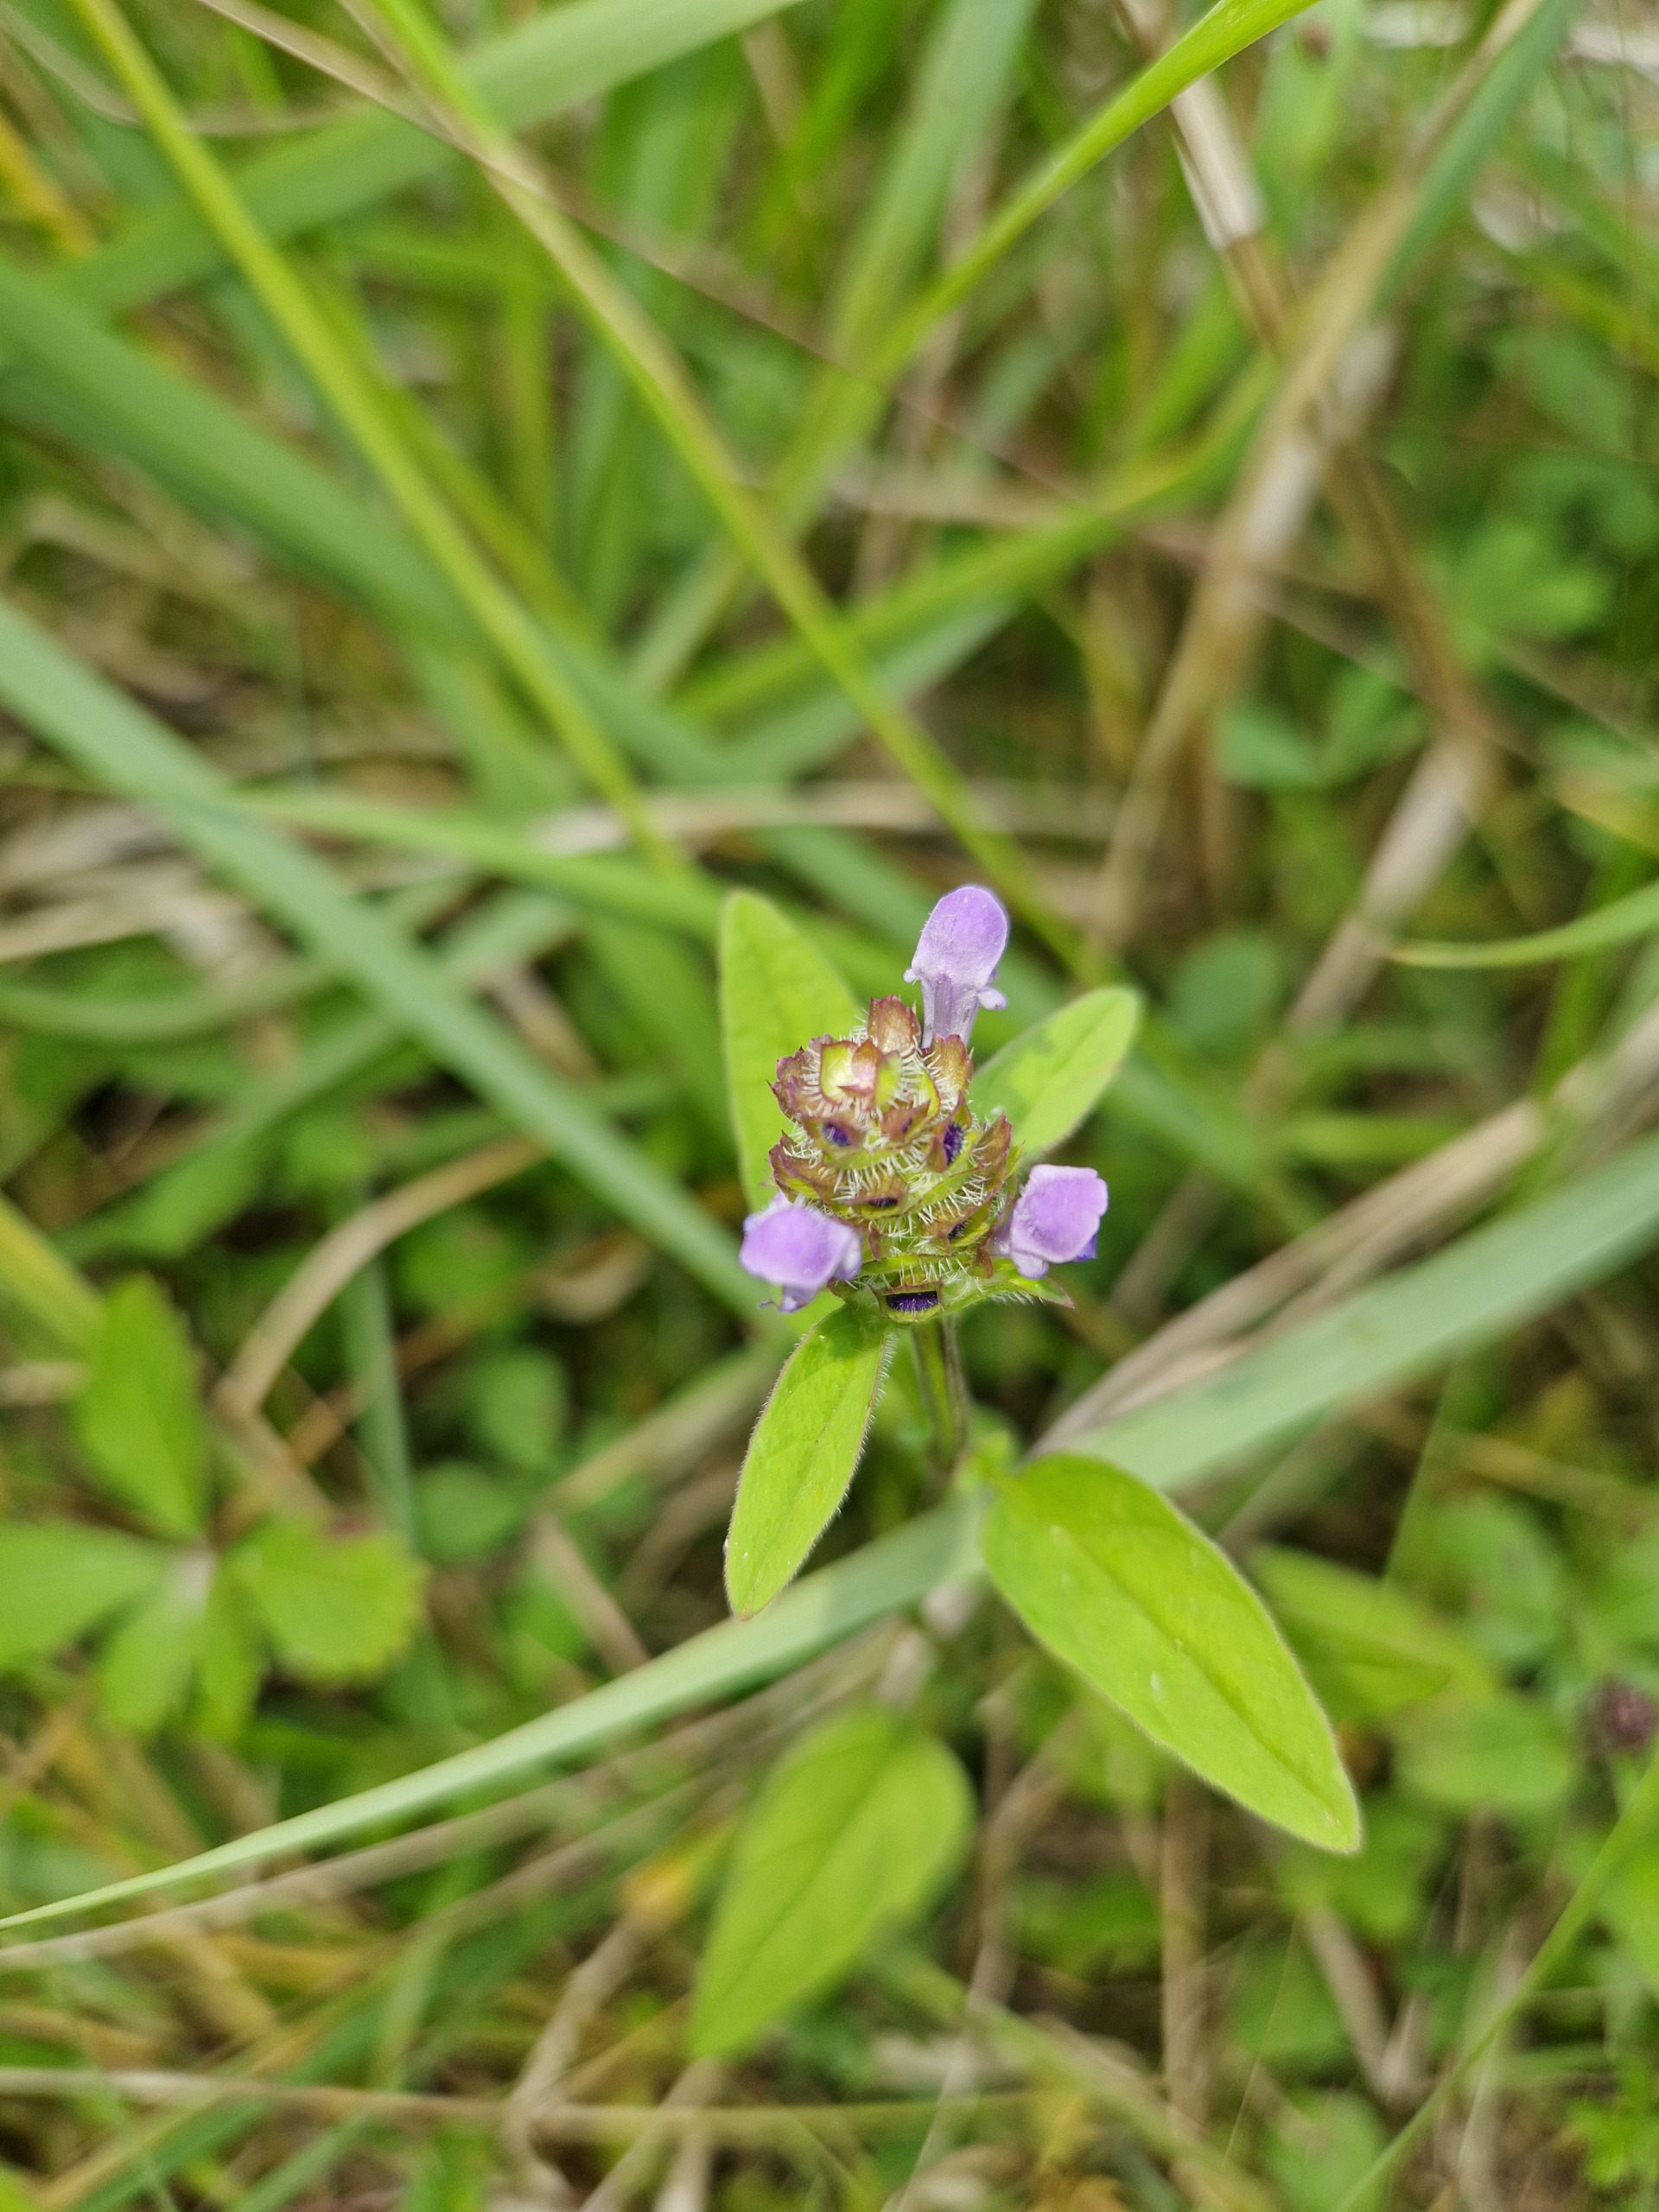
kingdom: Plantae
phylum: Tracheophyta
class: Magnoliopsida
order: Lamiales
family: Lamiaceae
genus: Prunella
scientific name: Prunella vulgaris
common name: Almindelig brunelle
